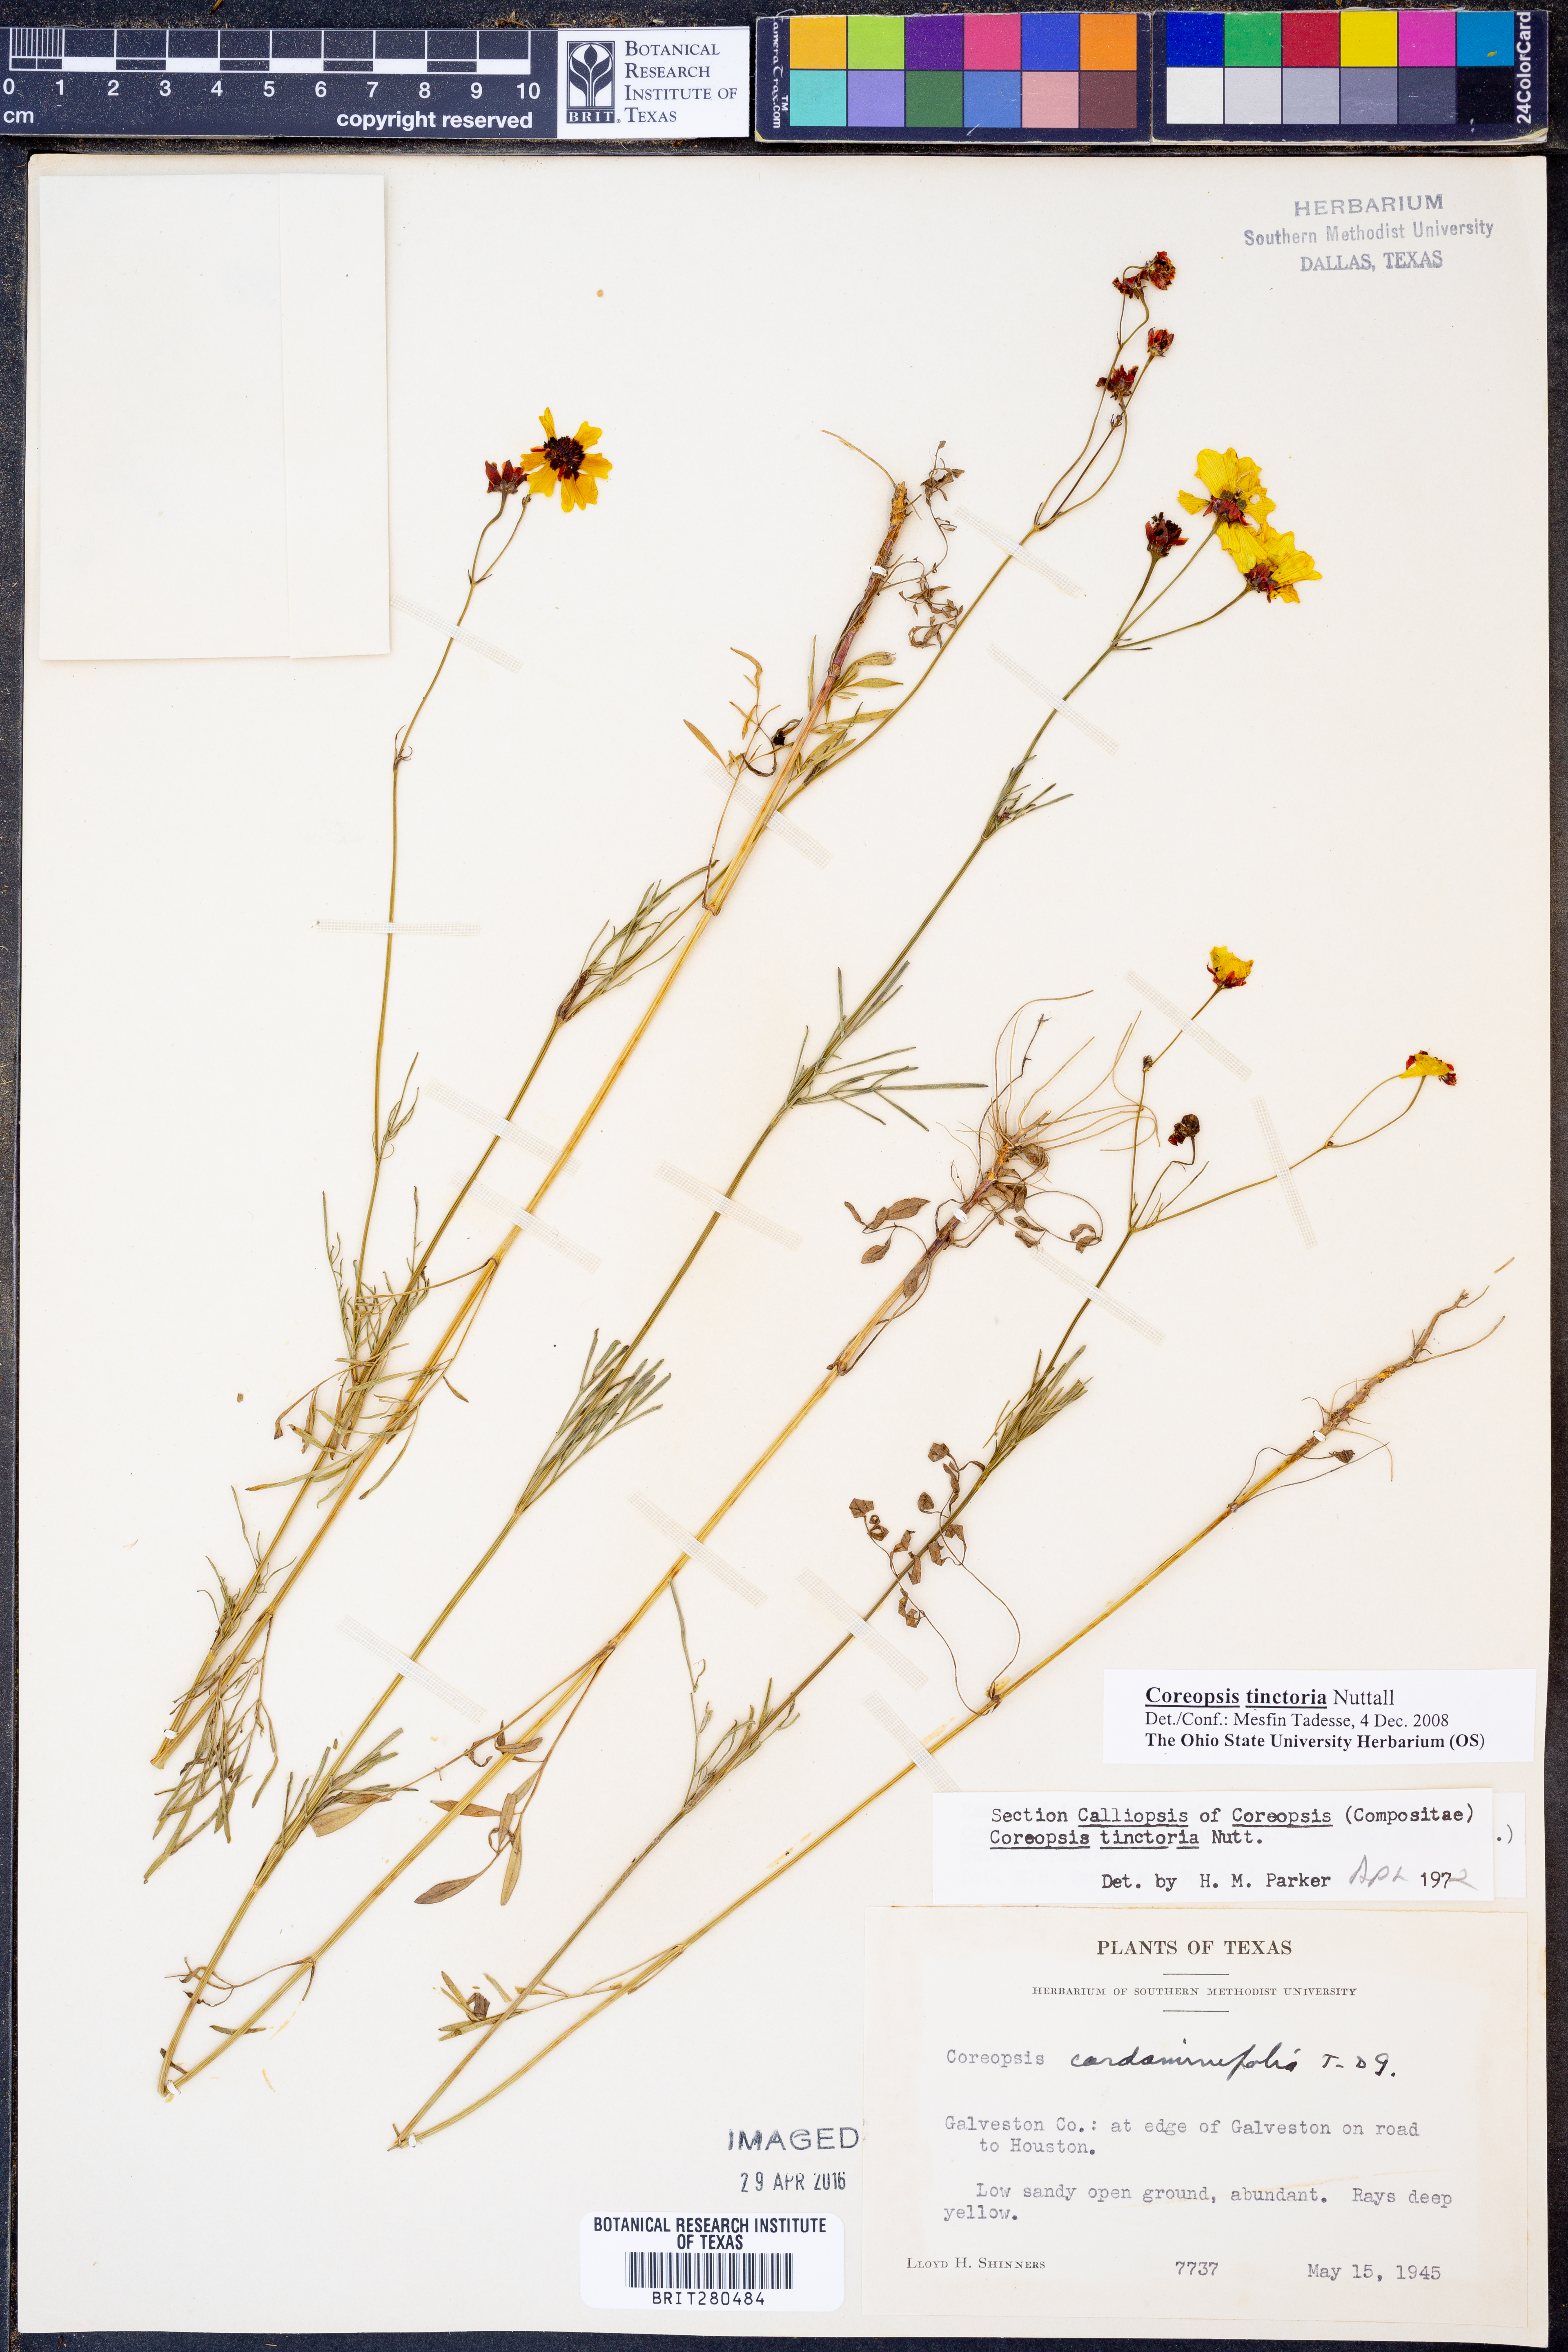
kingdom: Plantae
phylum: Tracheophyta
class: Magnoliopsida
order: Asterales
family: Asteraceae
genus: Coreopsis
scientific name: Coreopsis tinctoria
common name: Garden tickseed
